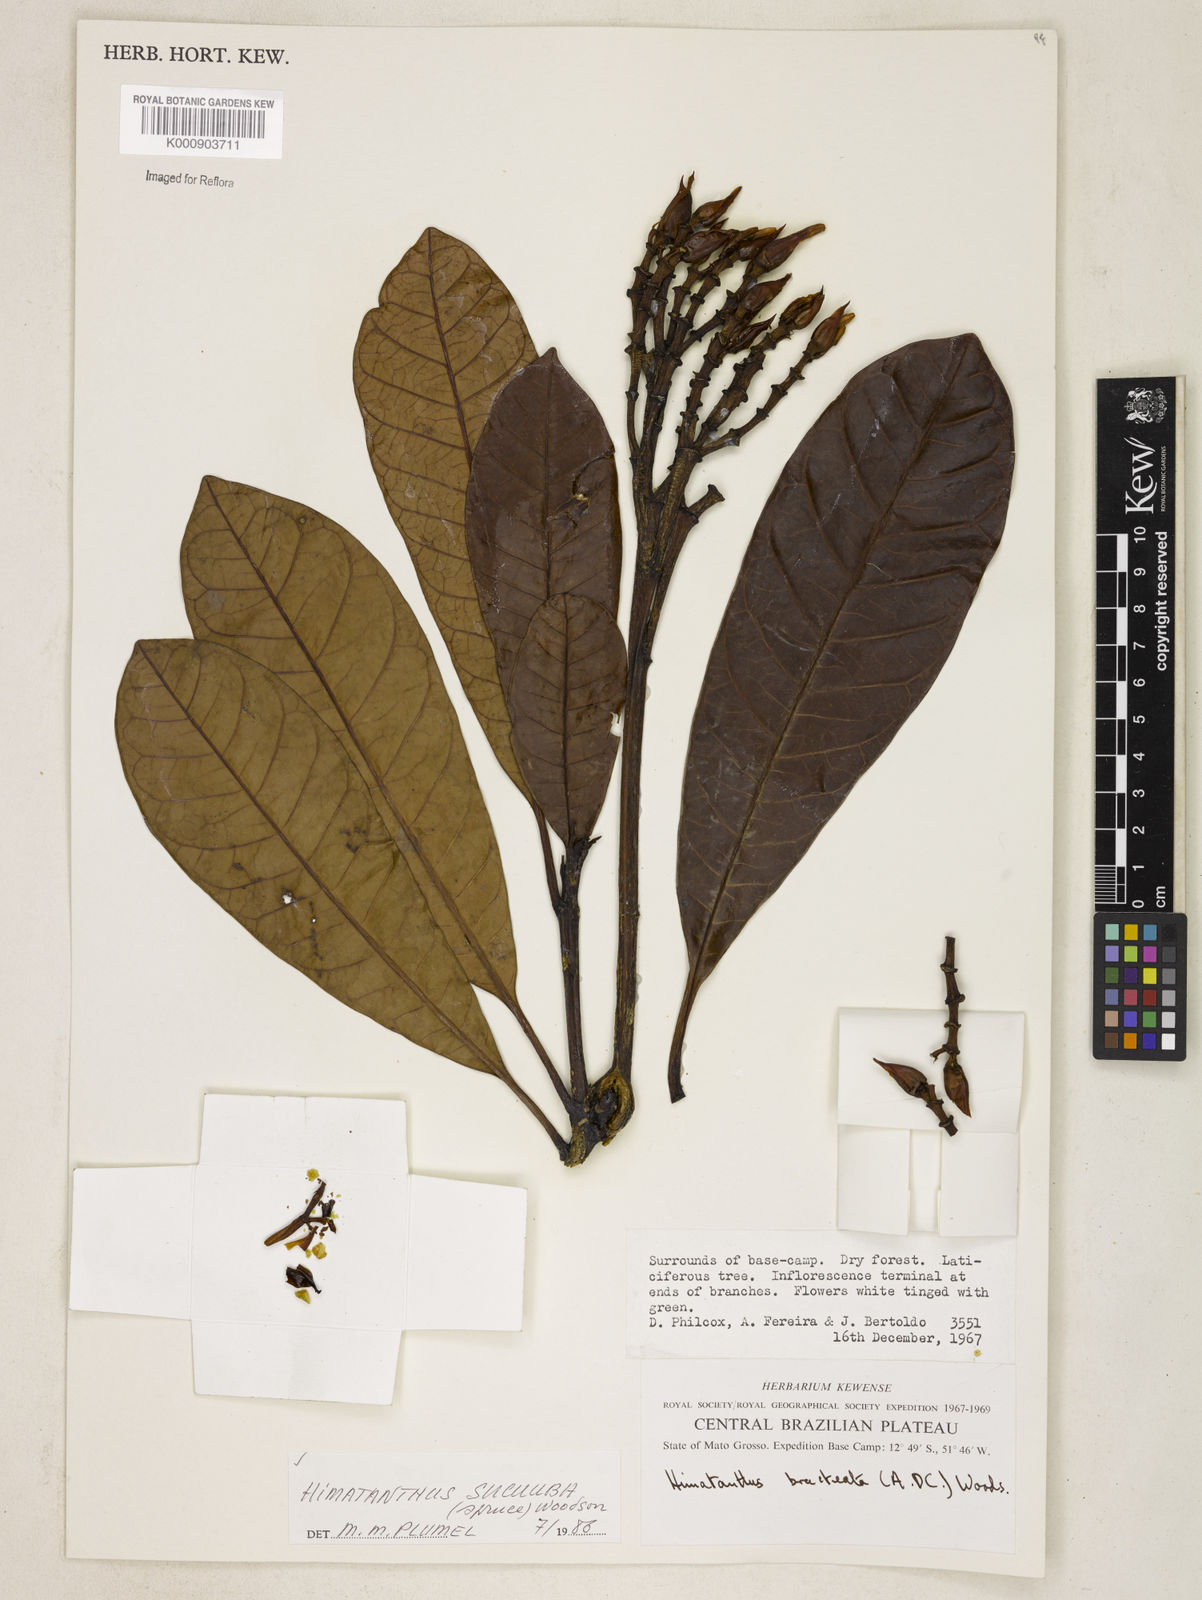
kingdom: Plantae
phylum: Tracheophyta
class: Magnoliopsida
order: Gentianales
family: Apocynaceae
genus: Himatanthus
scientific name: Himatanthus articulatus
